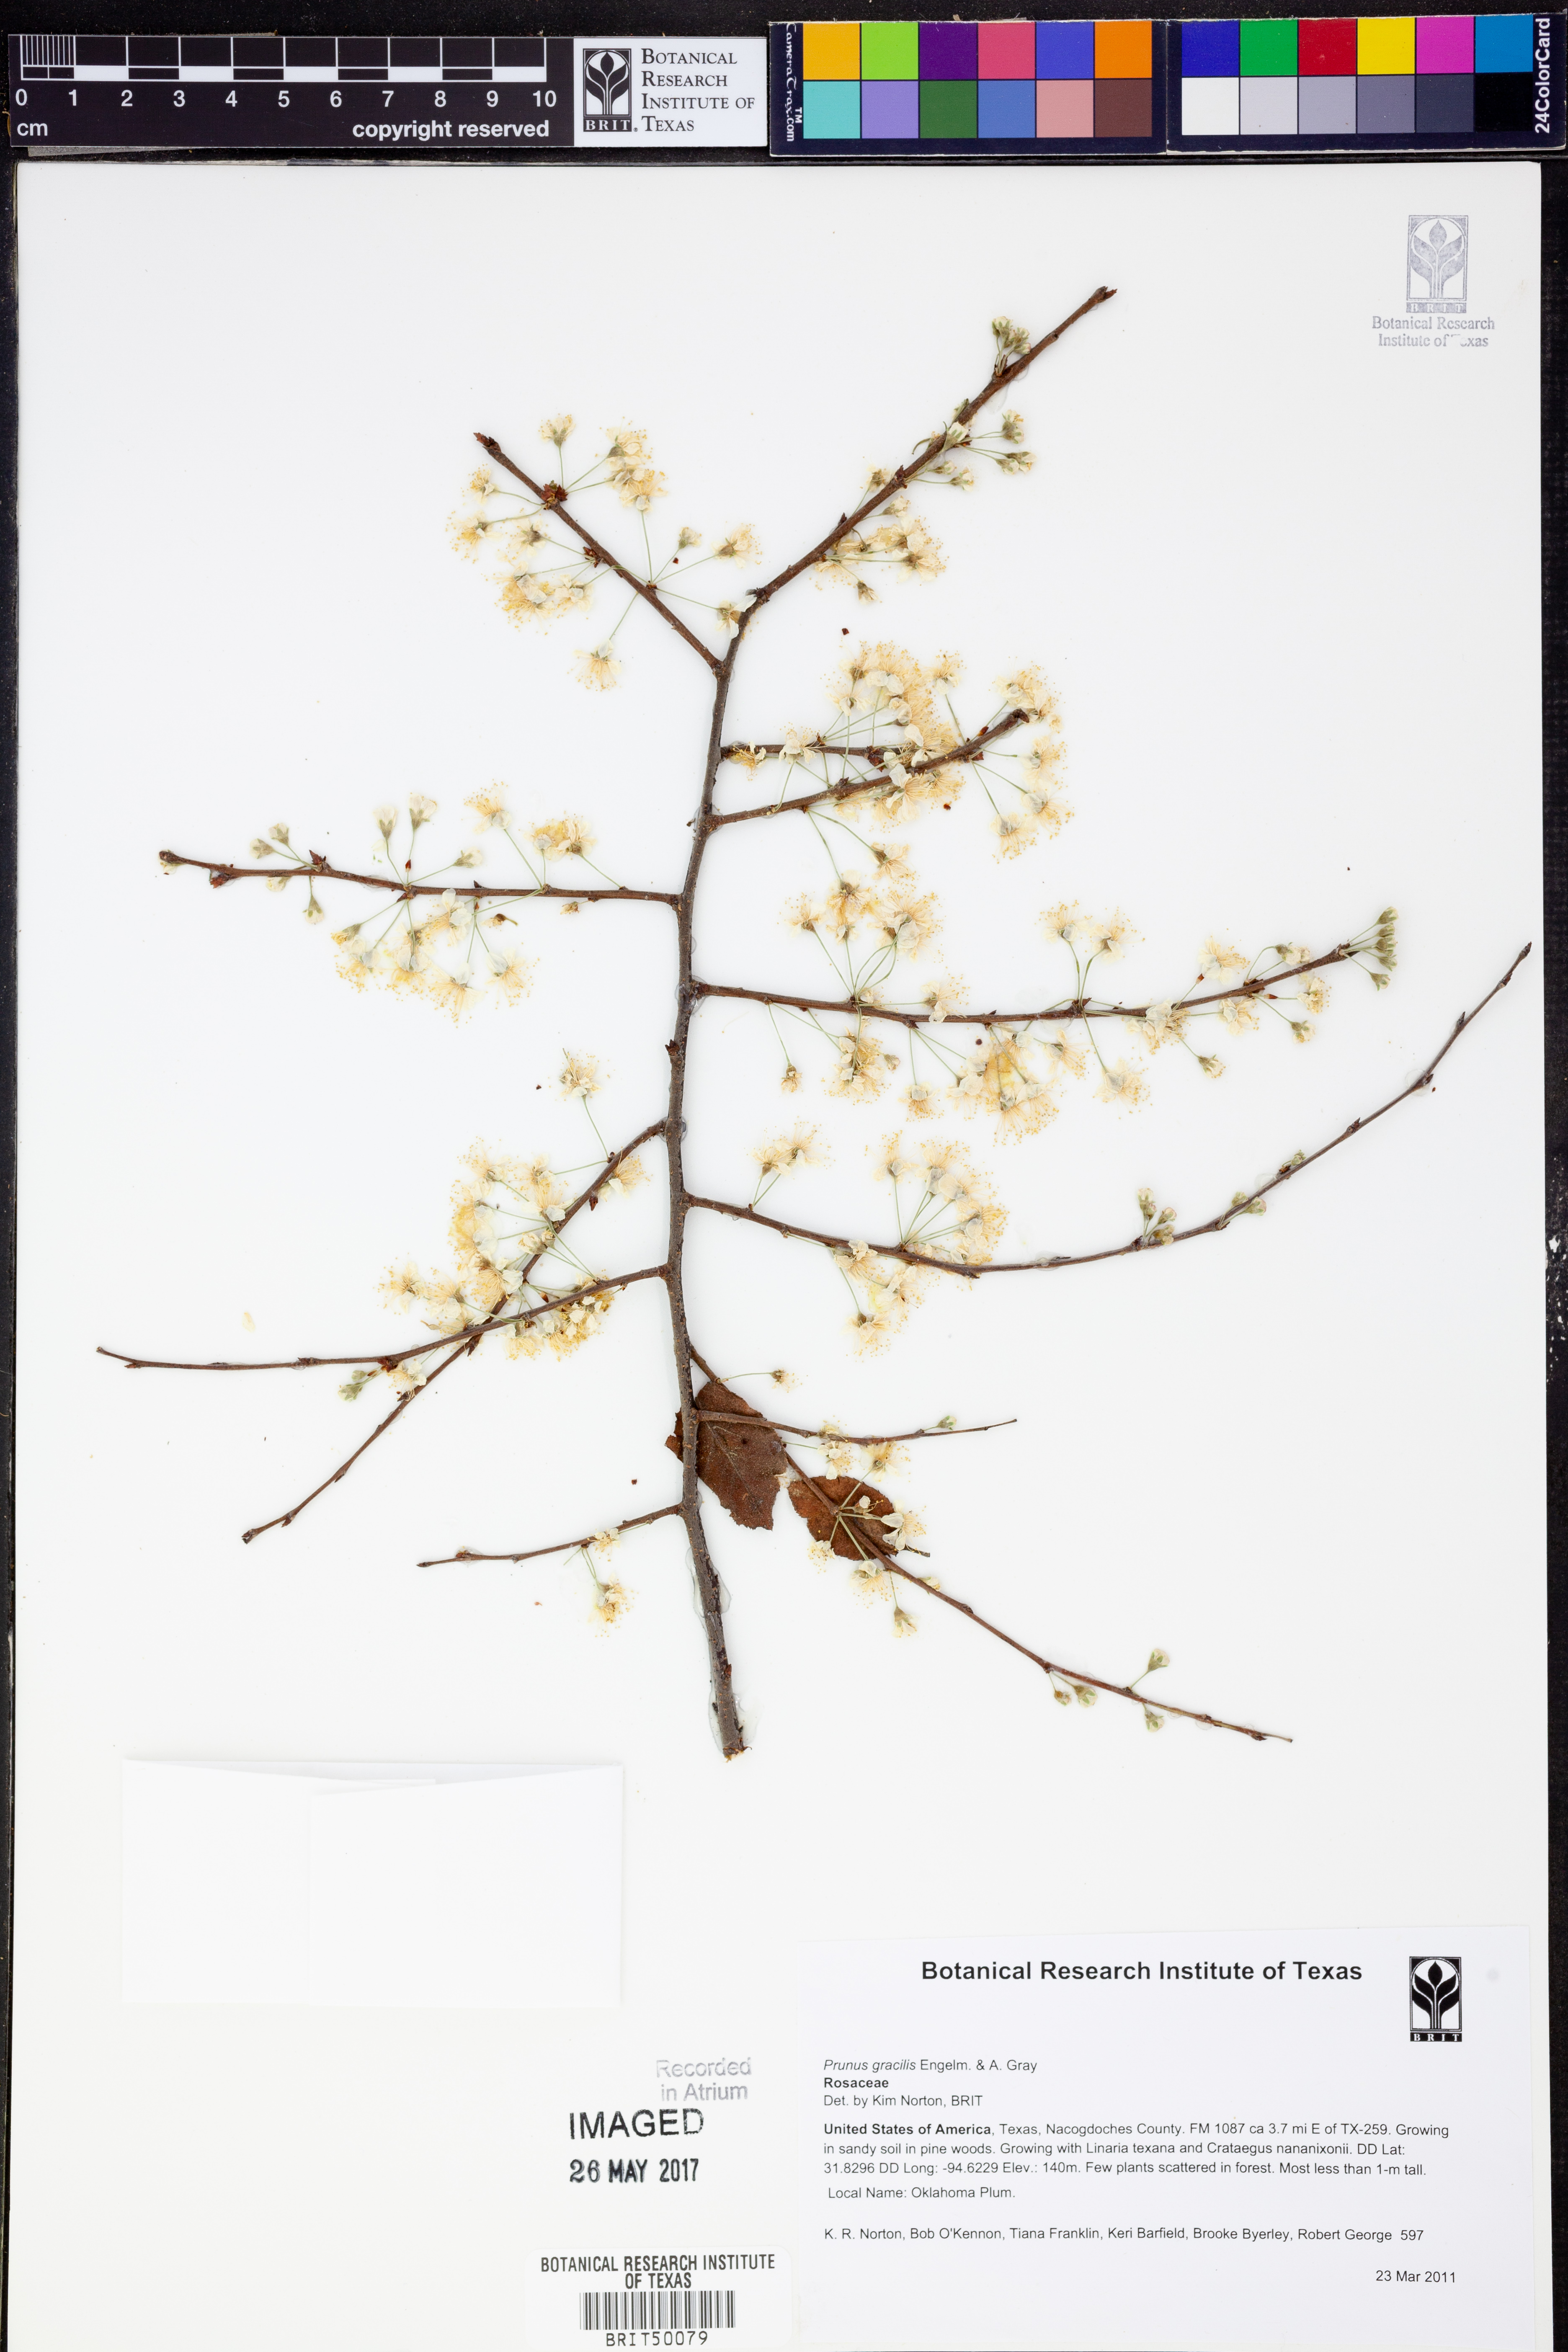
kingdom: Plantae
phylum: Tracheophyta
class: Magnoliopsida
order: Rosales
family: Rosaceae
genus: Prunus
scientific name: Prunus gracilis
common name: Oklahoma plum
